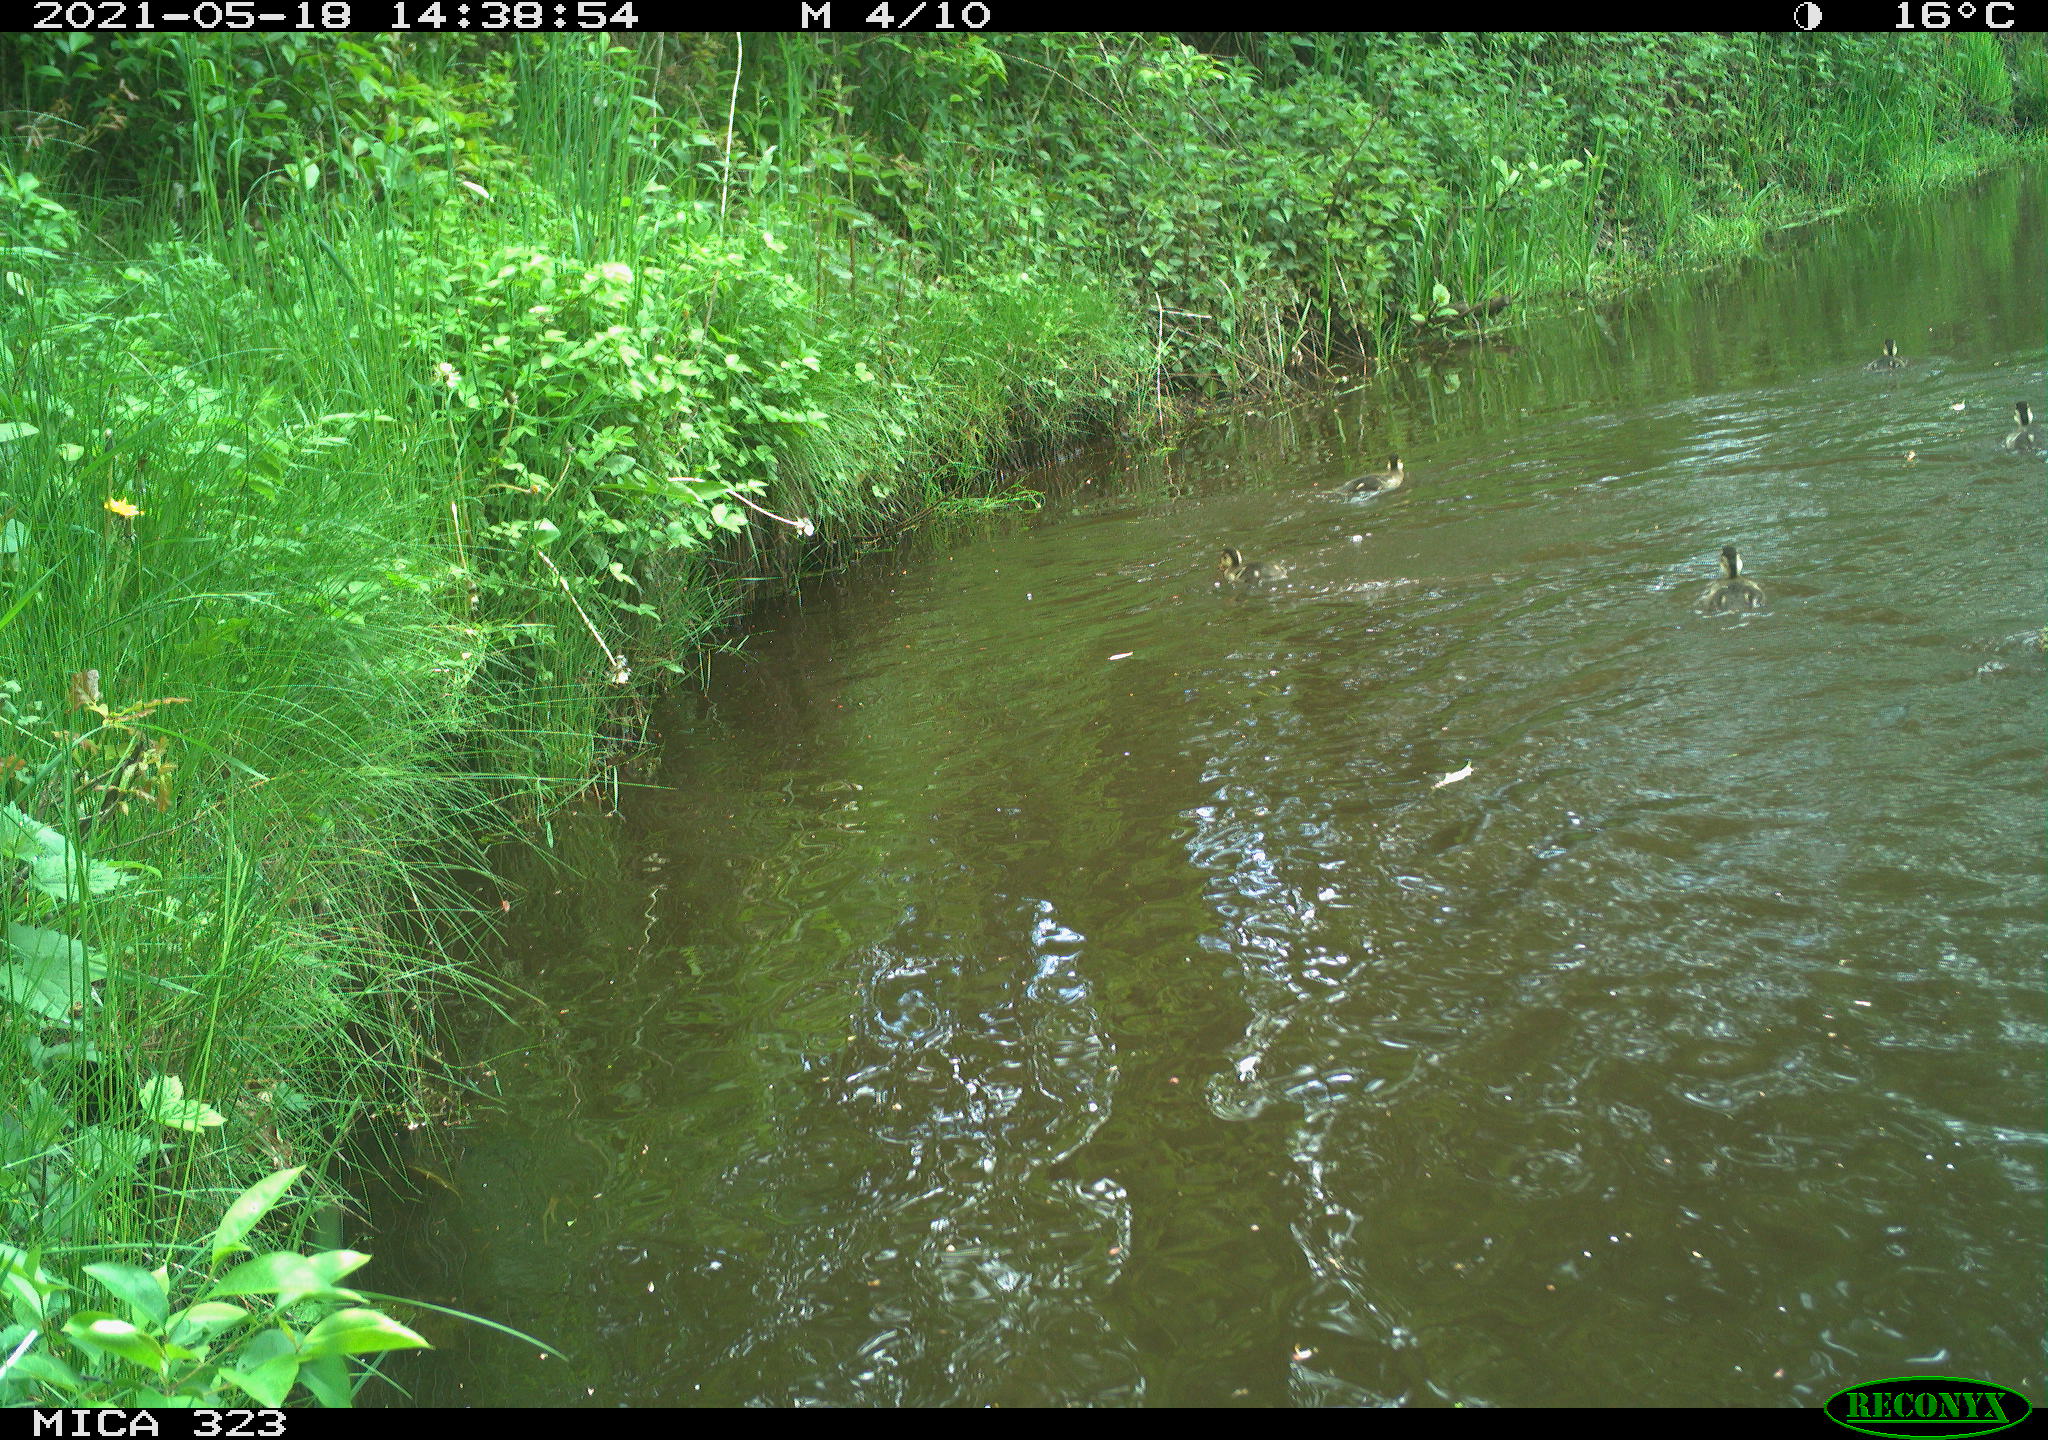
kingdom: Animalia
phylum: Chordata
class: Aves
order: Anseriformes
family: Anatidae
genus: Anas
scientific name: Anas platyrhynchos
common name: Mallard
